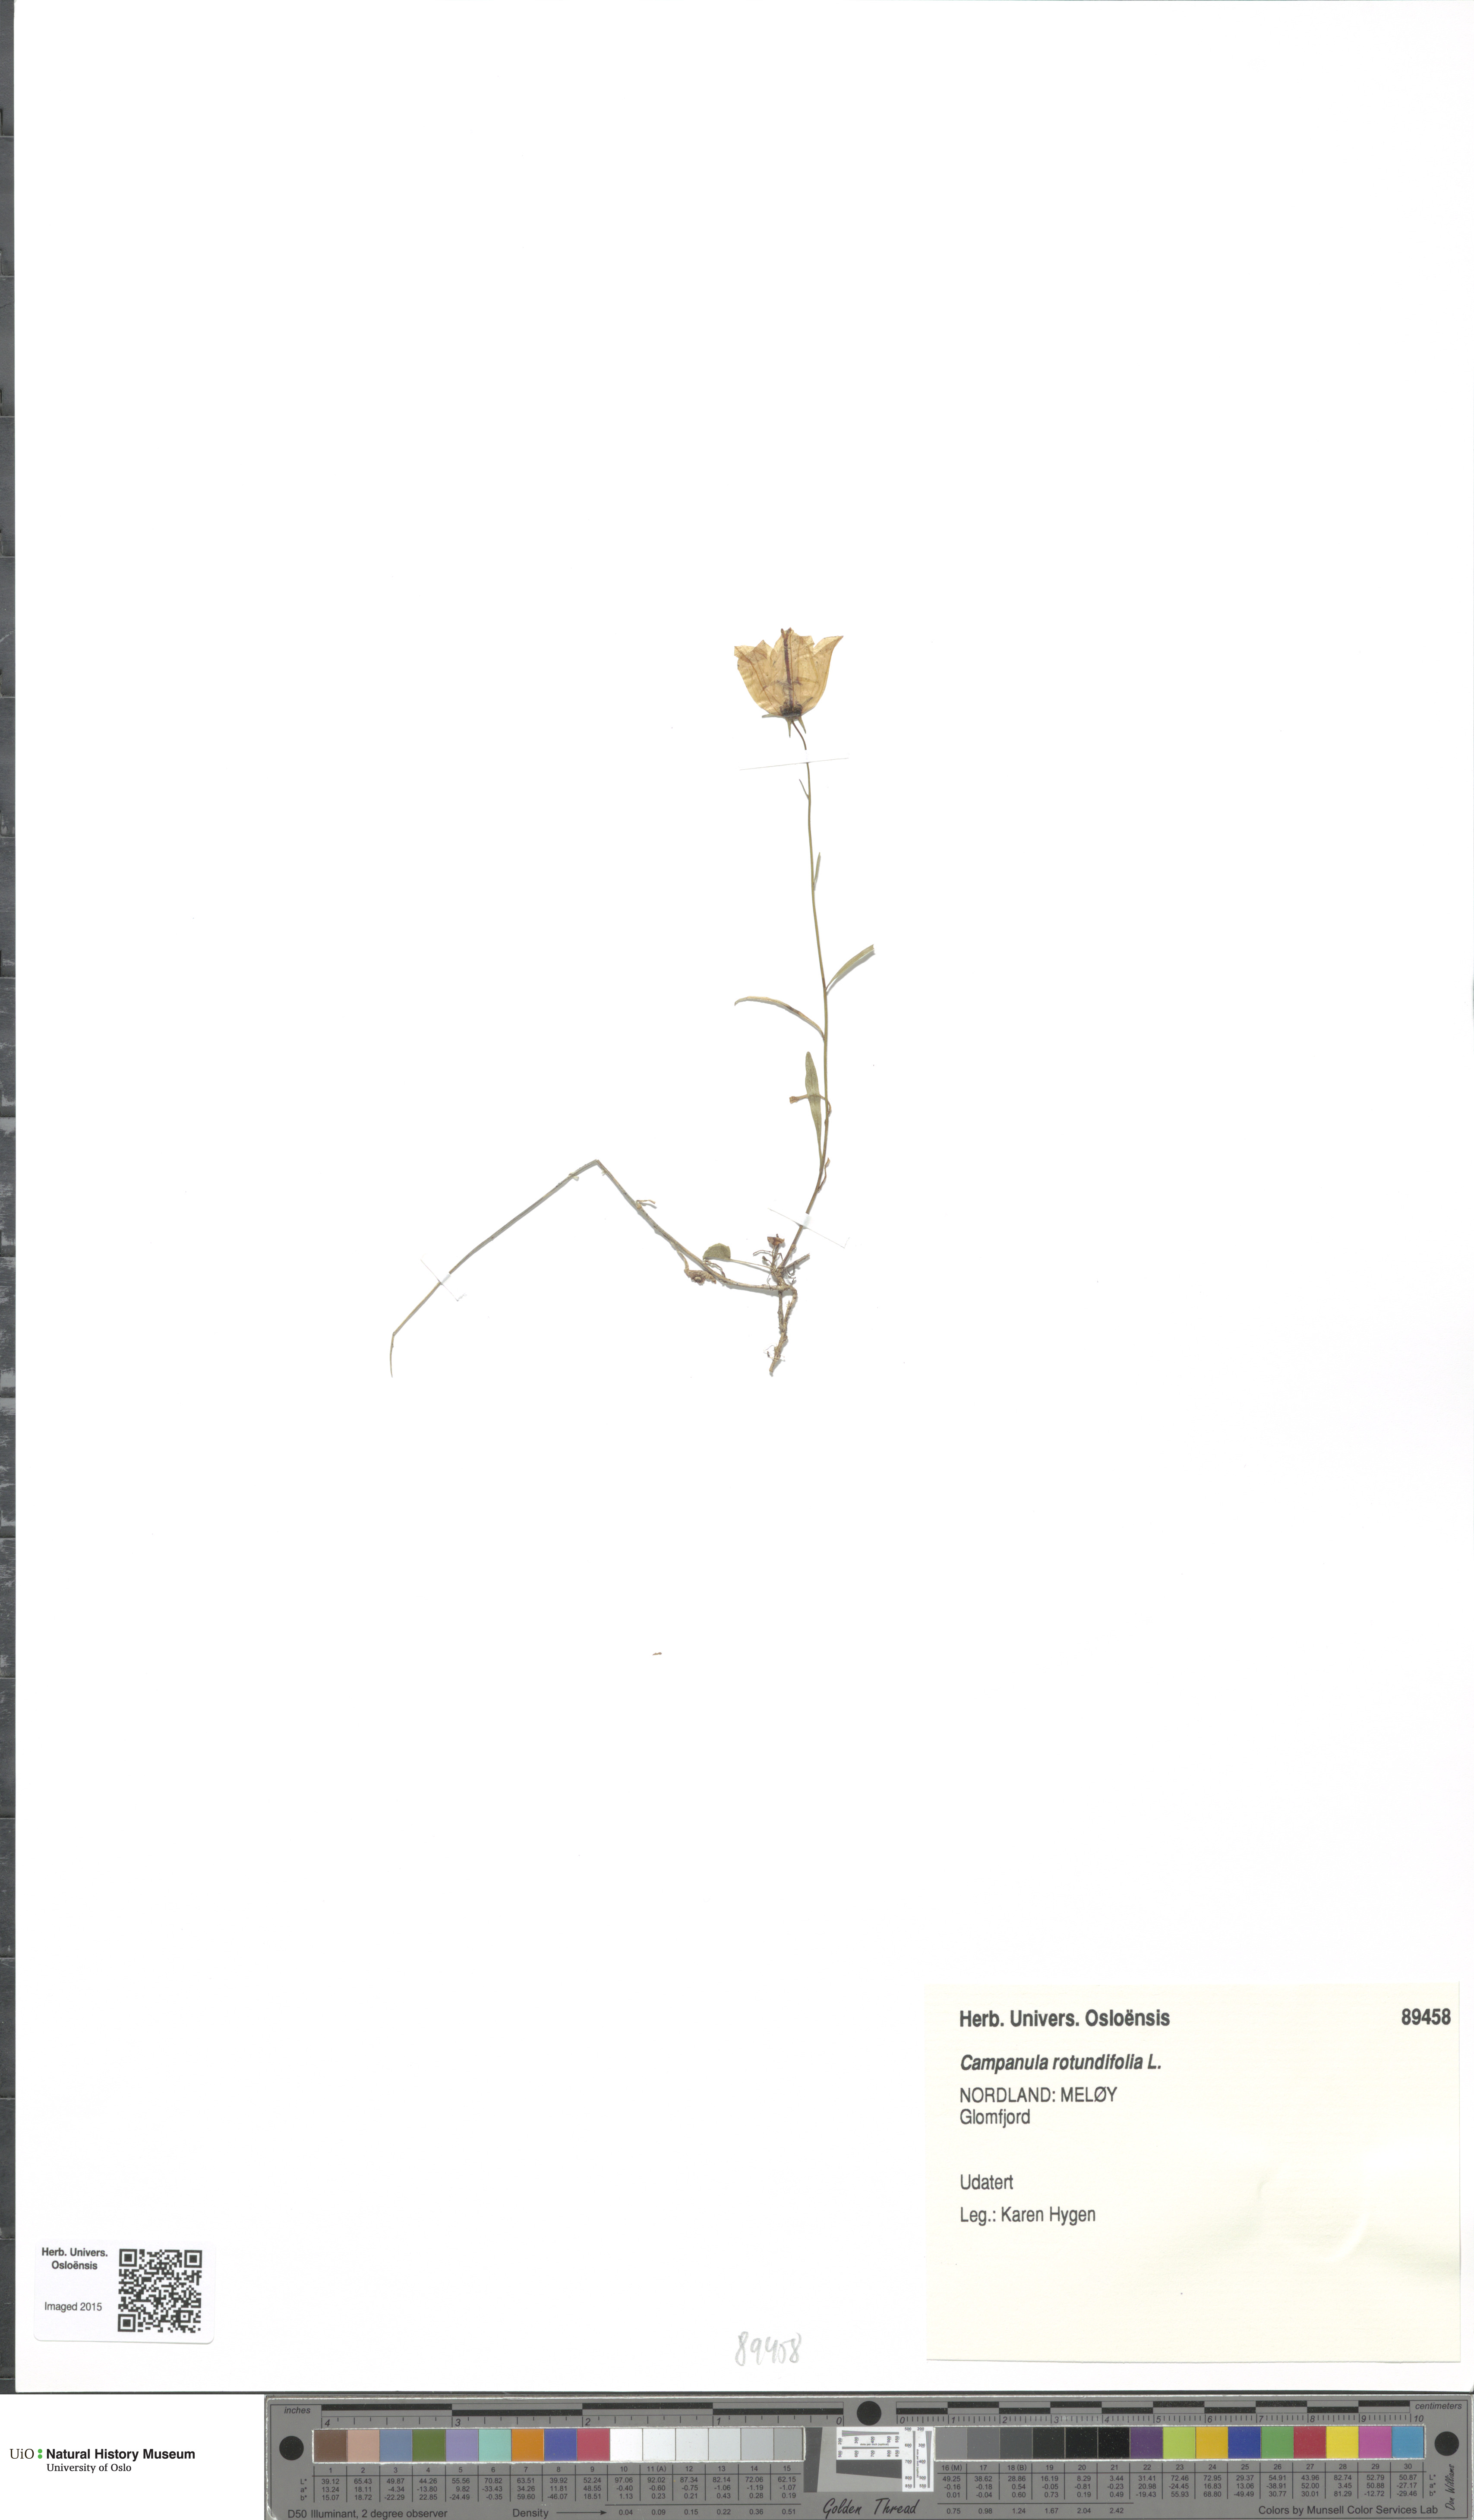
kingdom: Plantae
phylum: Tracheophyta
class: Magnoliopsida
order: Asterales
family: Campanulaceae
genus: Campanula
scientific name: Campanula rotundifolia
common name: Harebell
